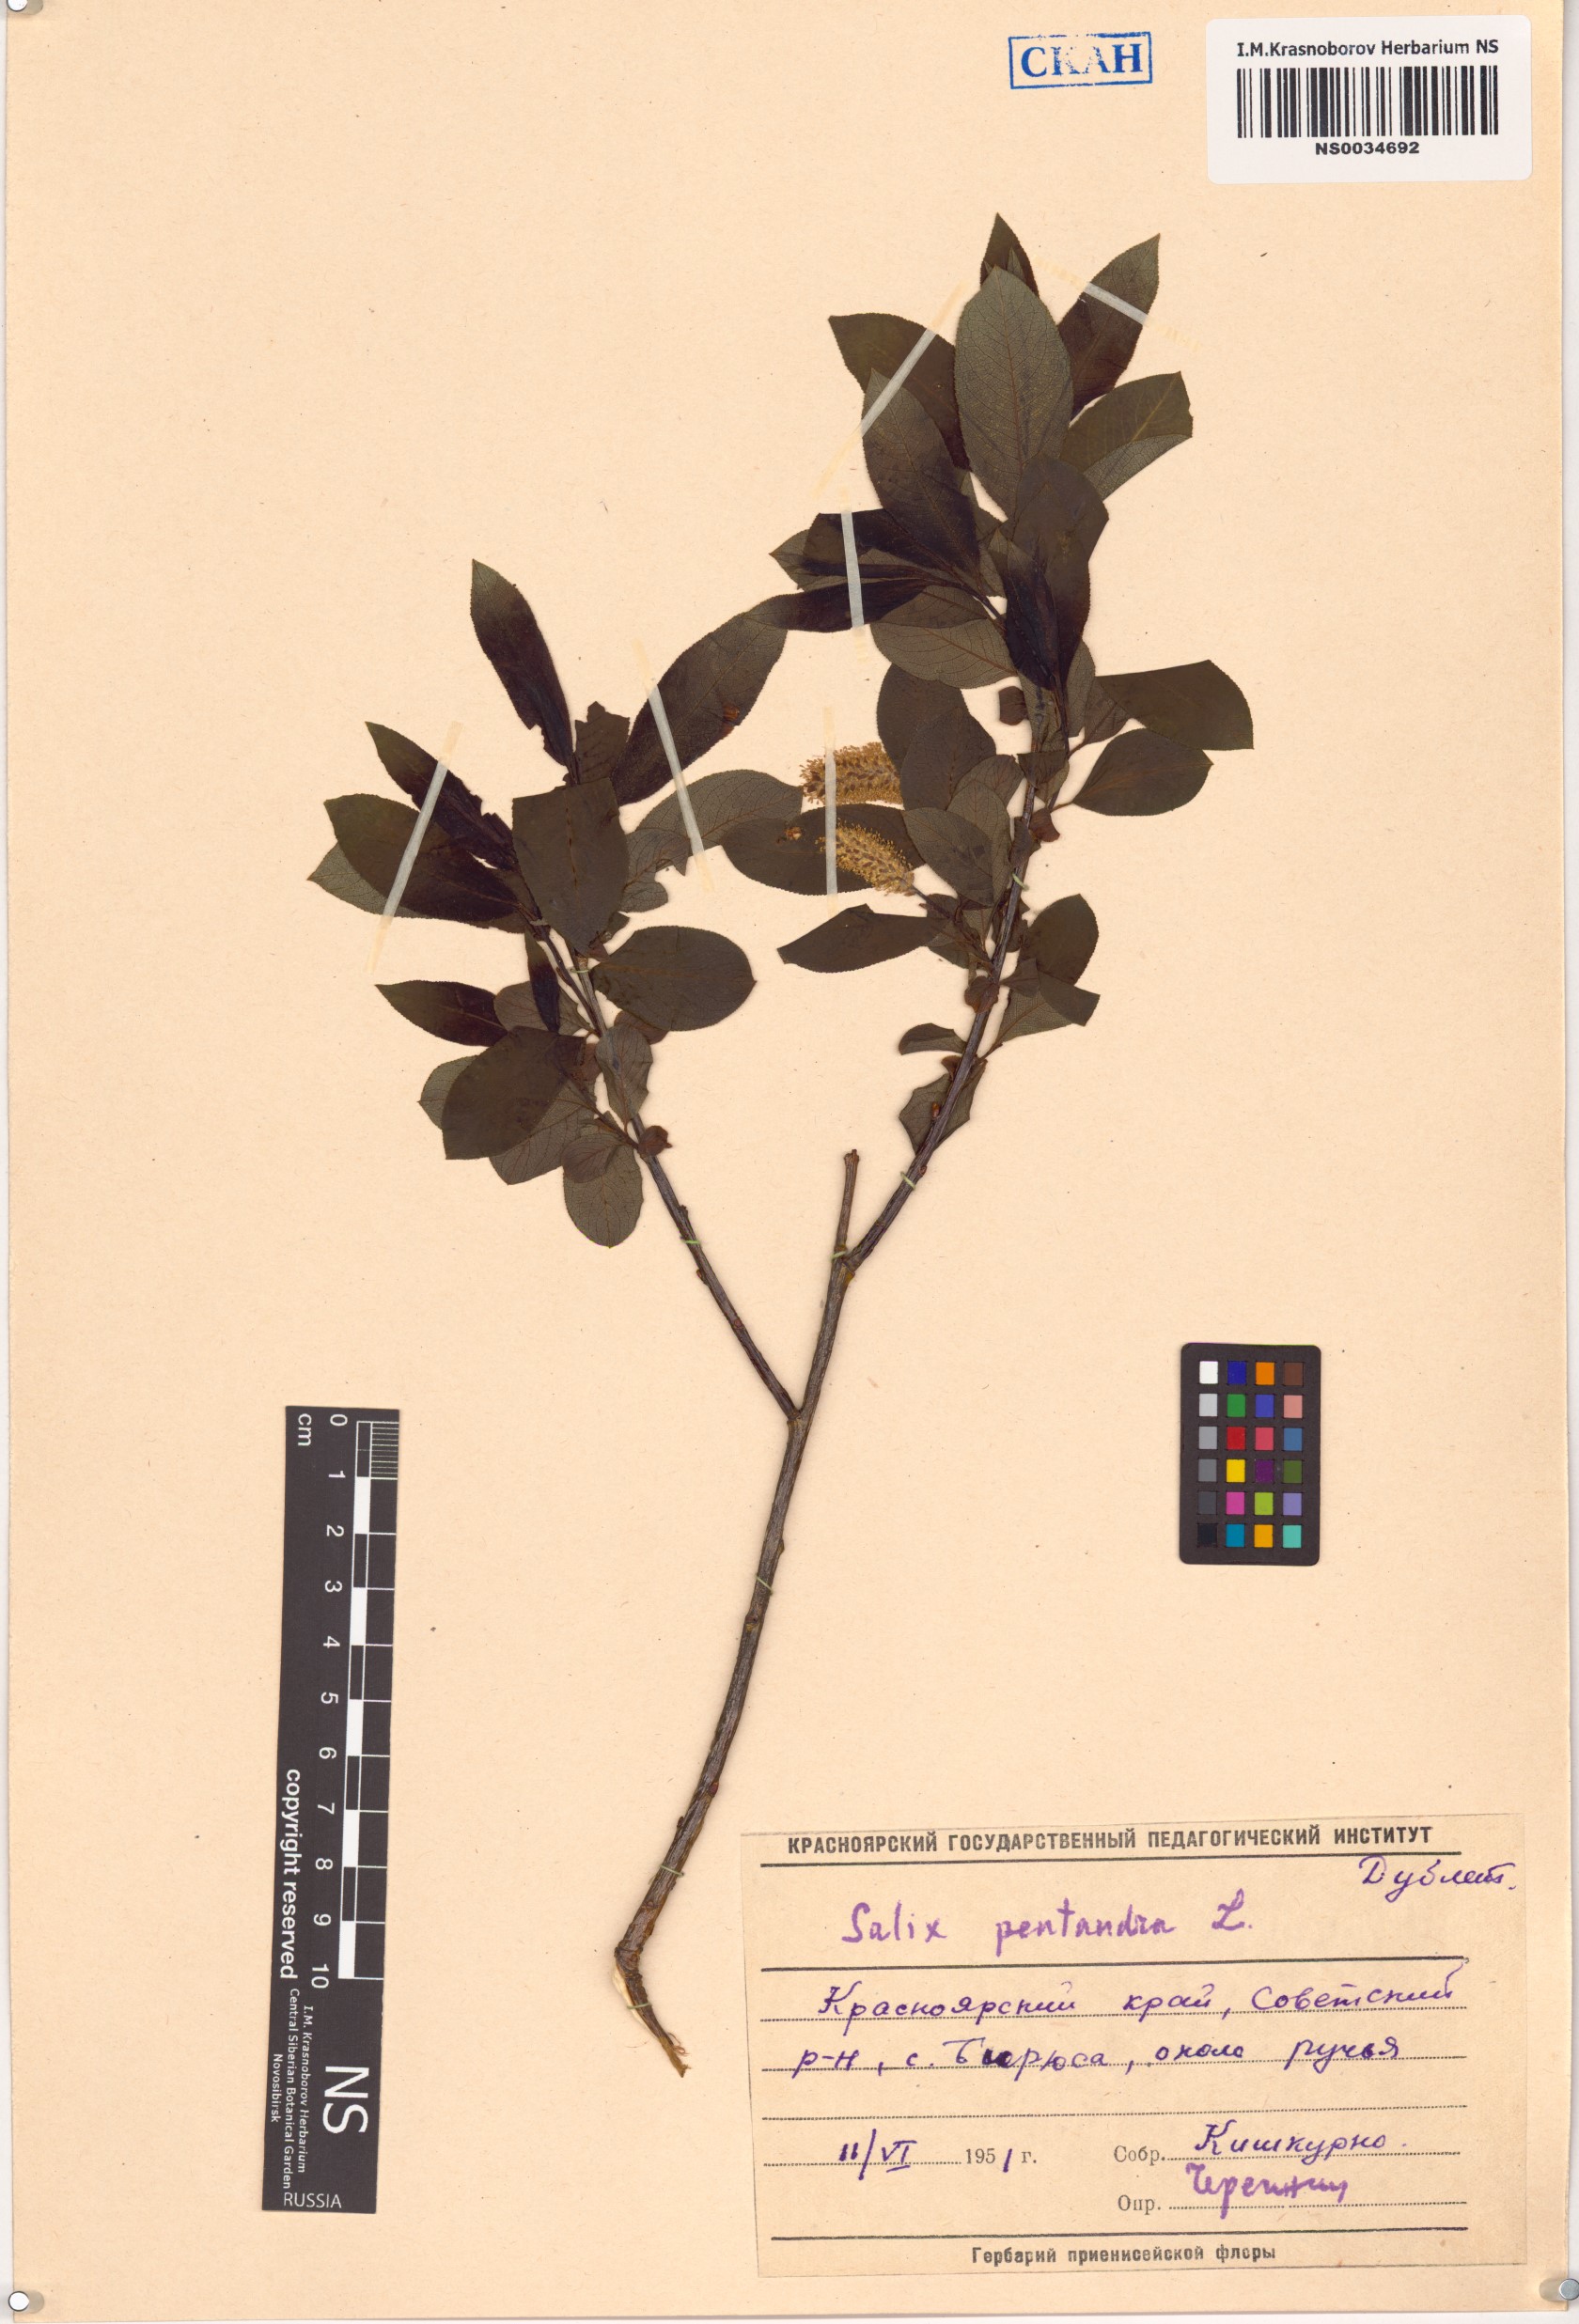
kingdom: Plantae
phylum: Tracheophyta
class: Magnoliopsida
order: Malpighiales
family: Salicaceae
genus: Salix
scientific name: Salix pentandra
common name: Bay willow
